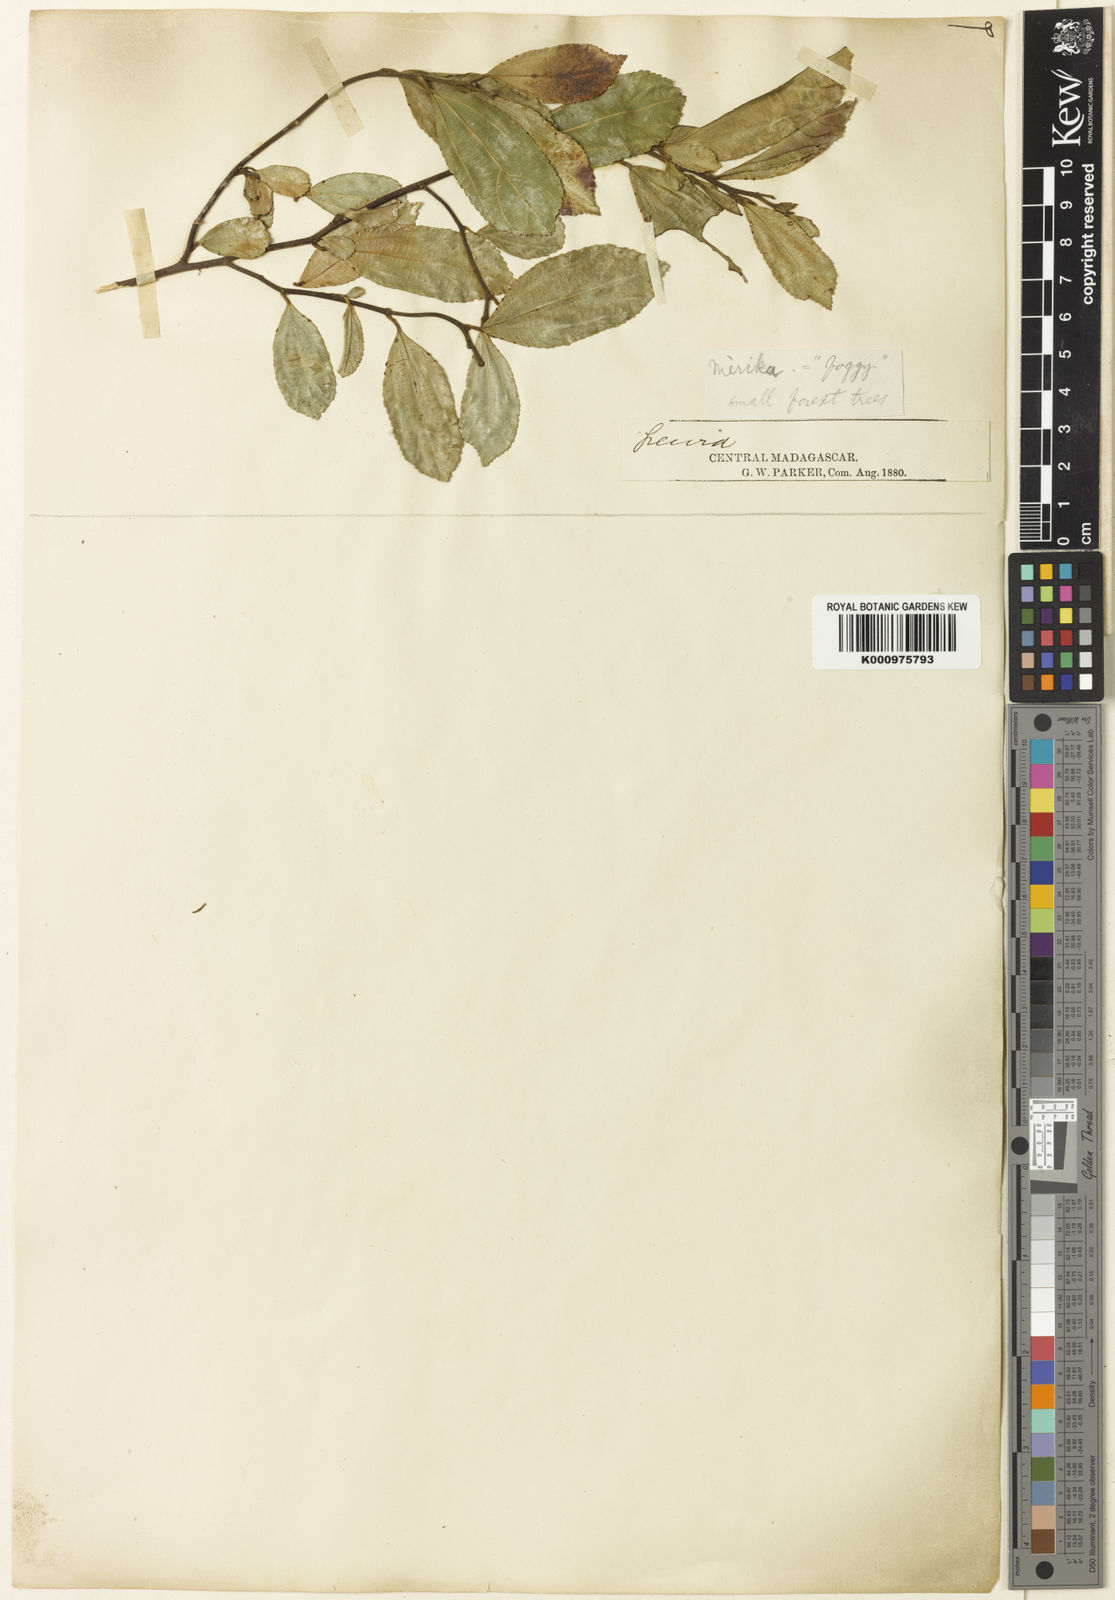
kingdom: Plantae
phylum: Tracheophyta
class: Magnoliopsida
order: Malvales
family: Malvaceae
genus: Grewia
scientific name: Grewia cuneifolia
